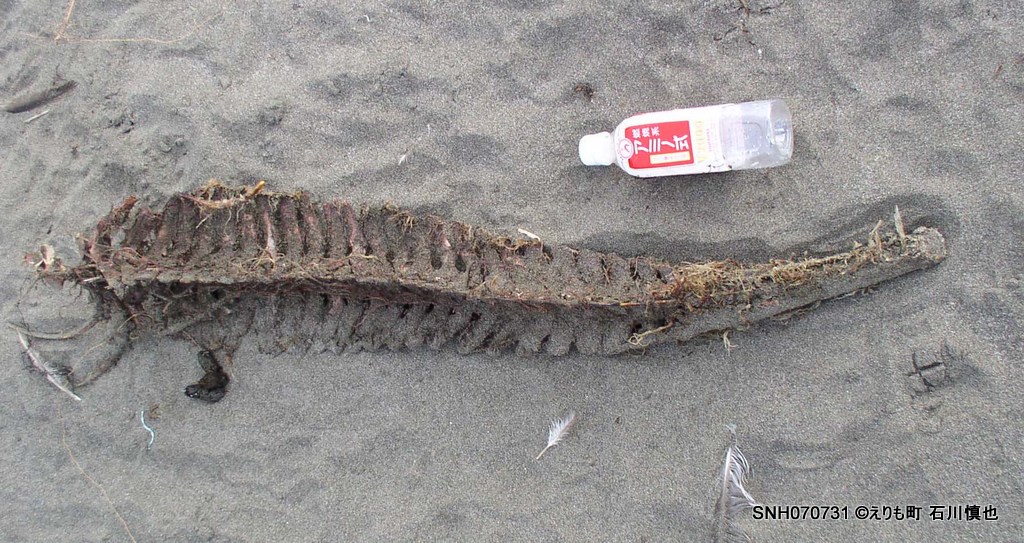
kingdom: Animalia
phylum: Chordata
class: Mammalia
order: Cetacea
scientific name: Cetacea
